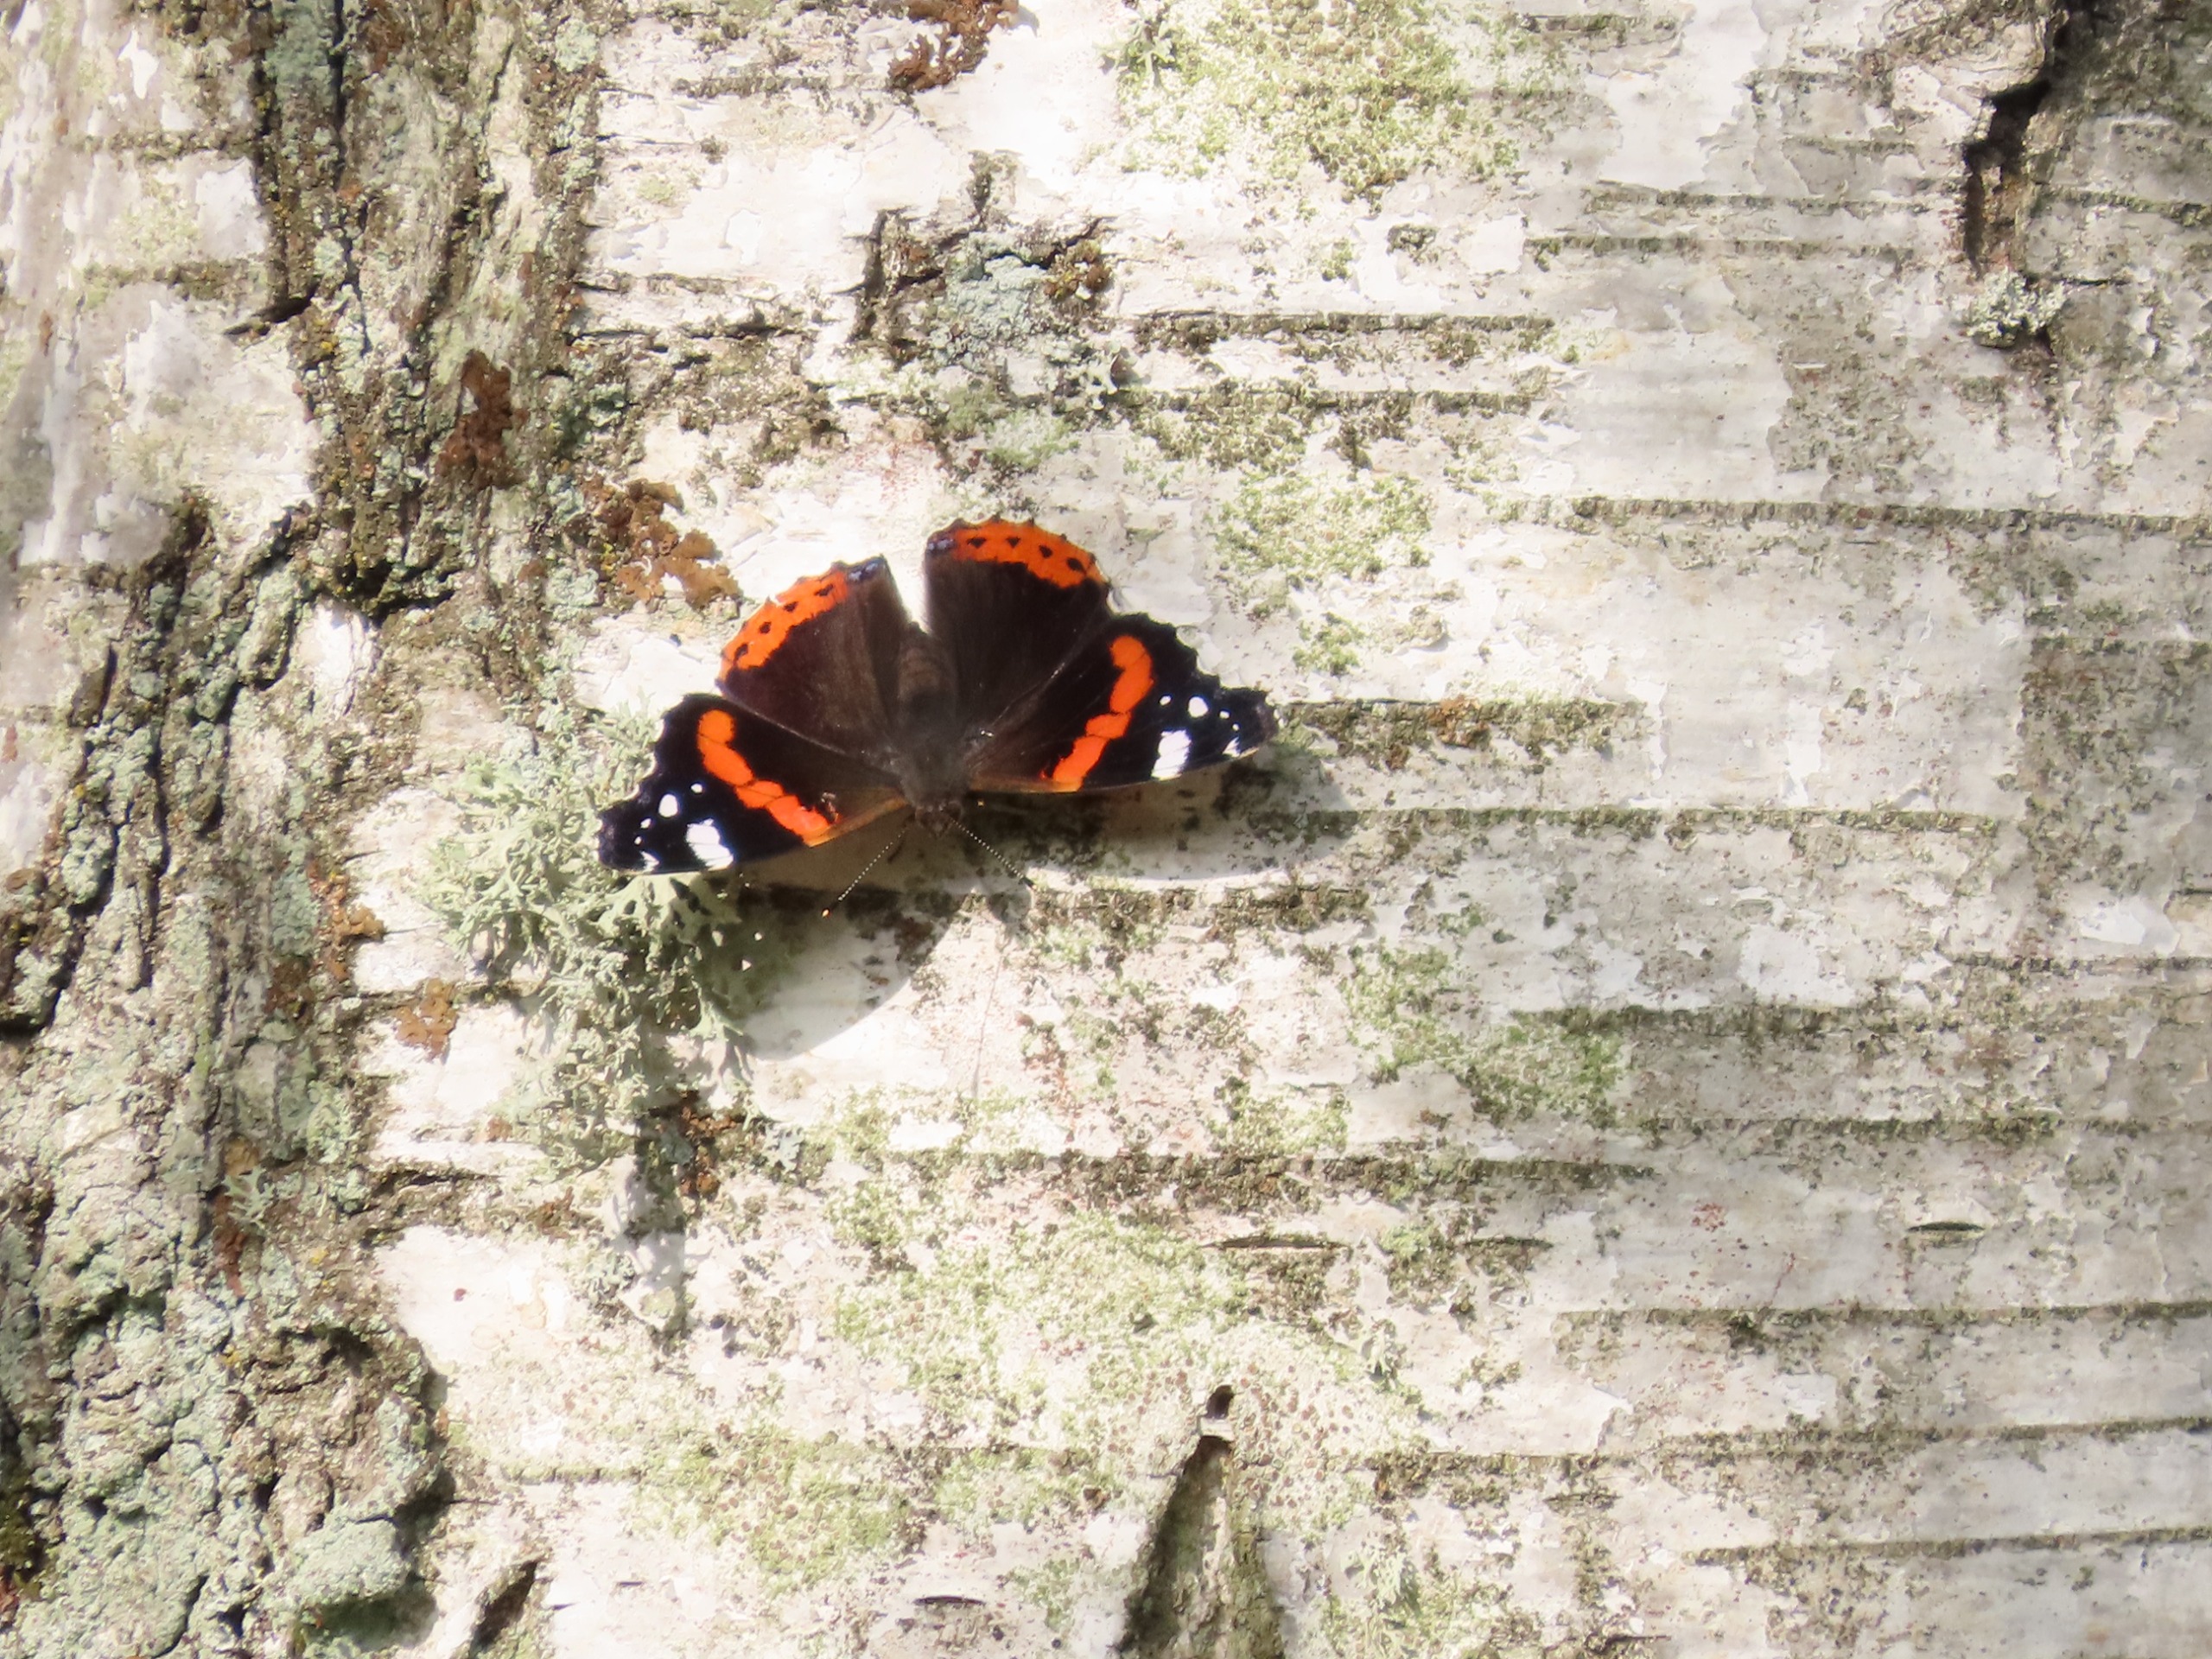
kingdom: Animalia
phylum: Arthropoda
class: Insecta
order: Lepidoptera
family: Nymphalidae
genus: Vanessa
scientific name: Vanessa atalanta
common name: Admiral
